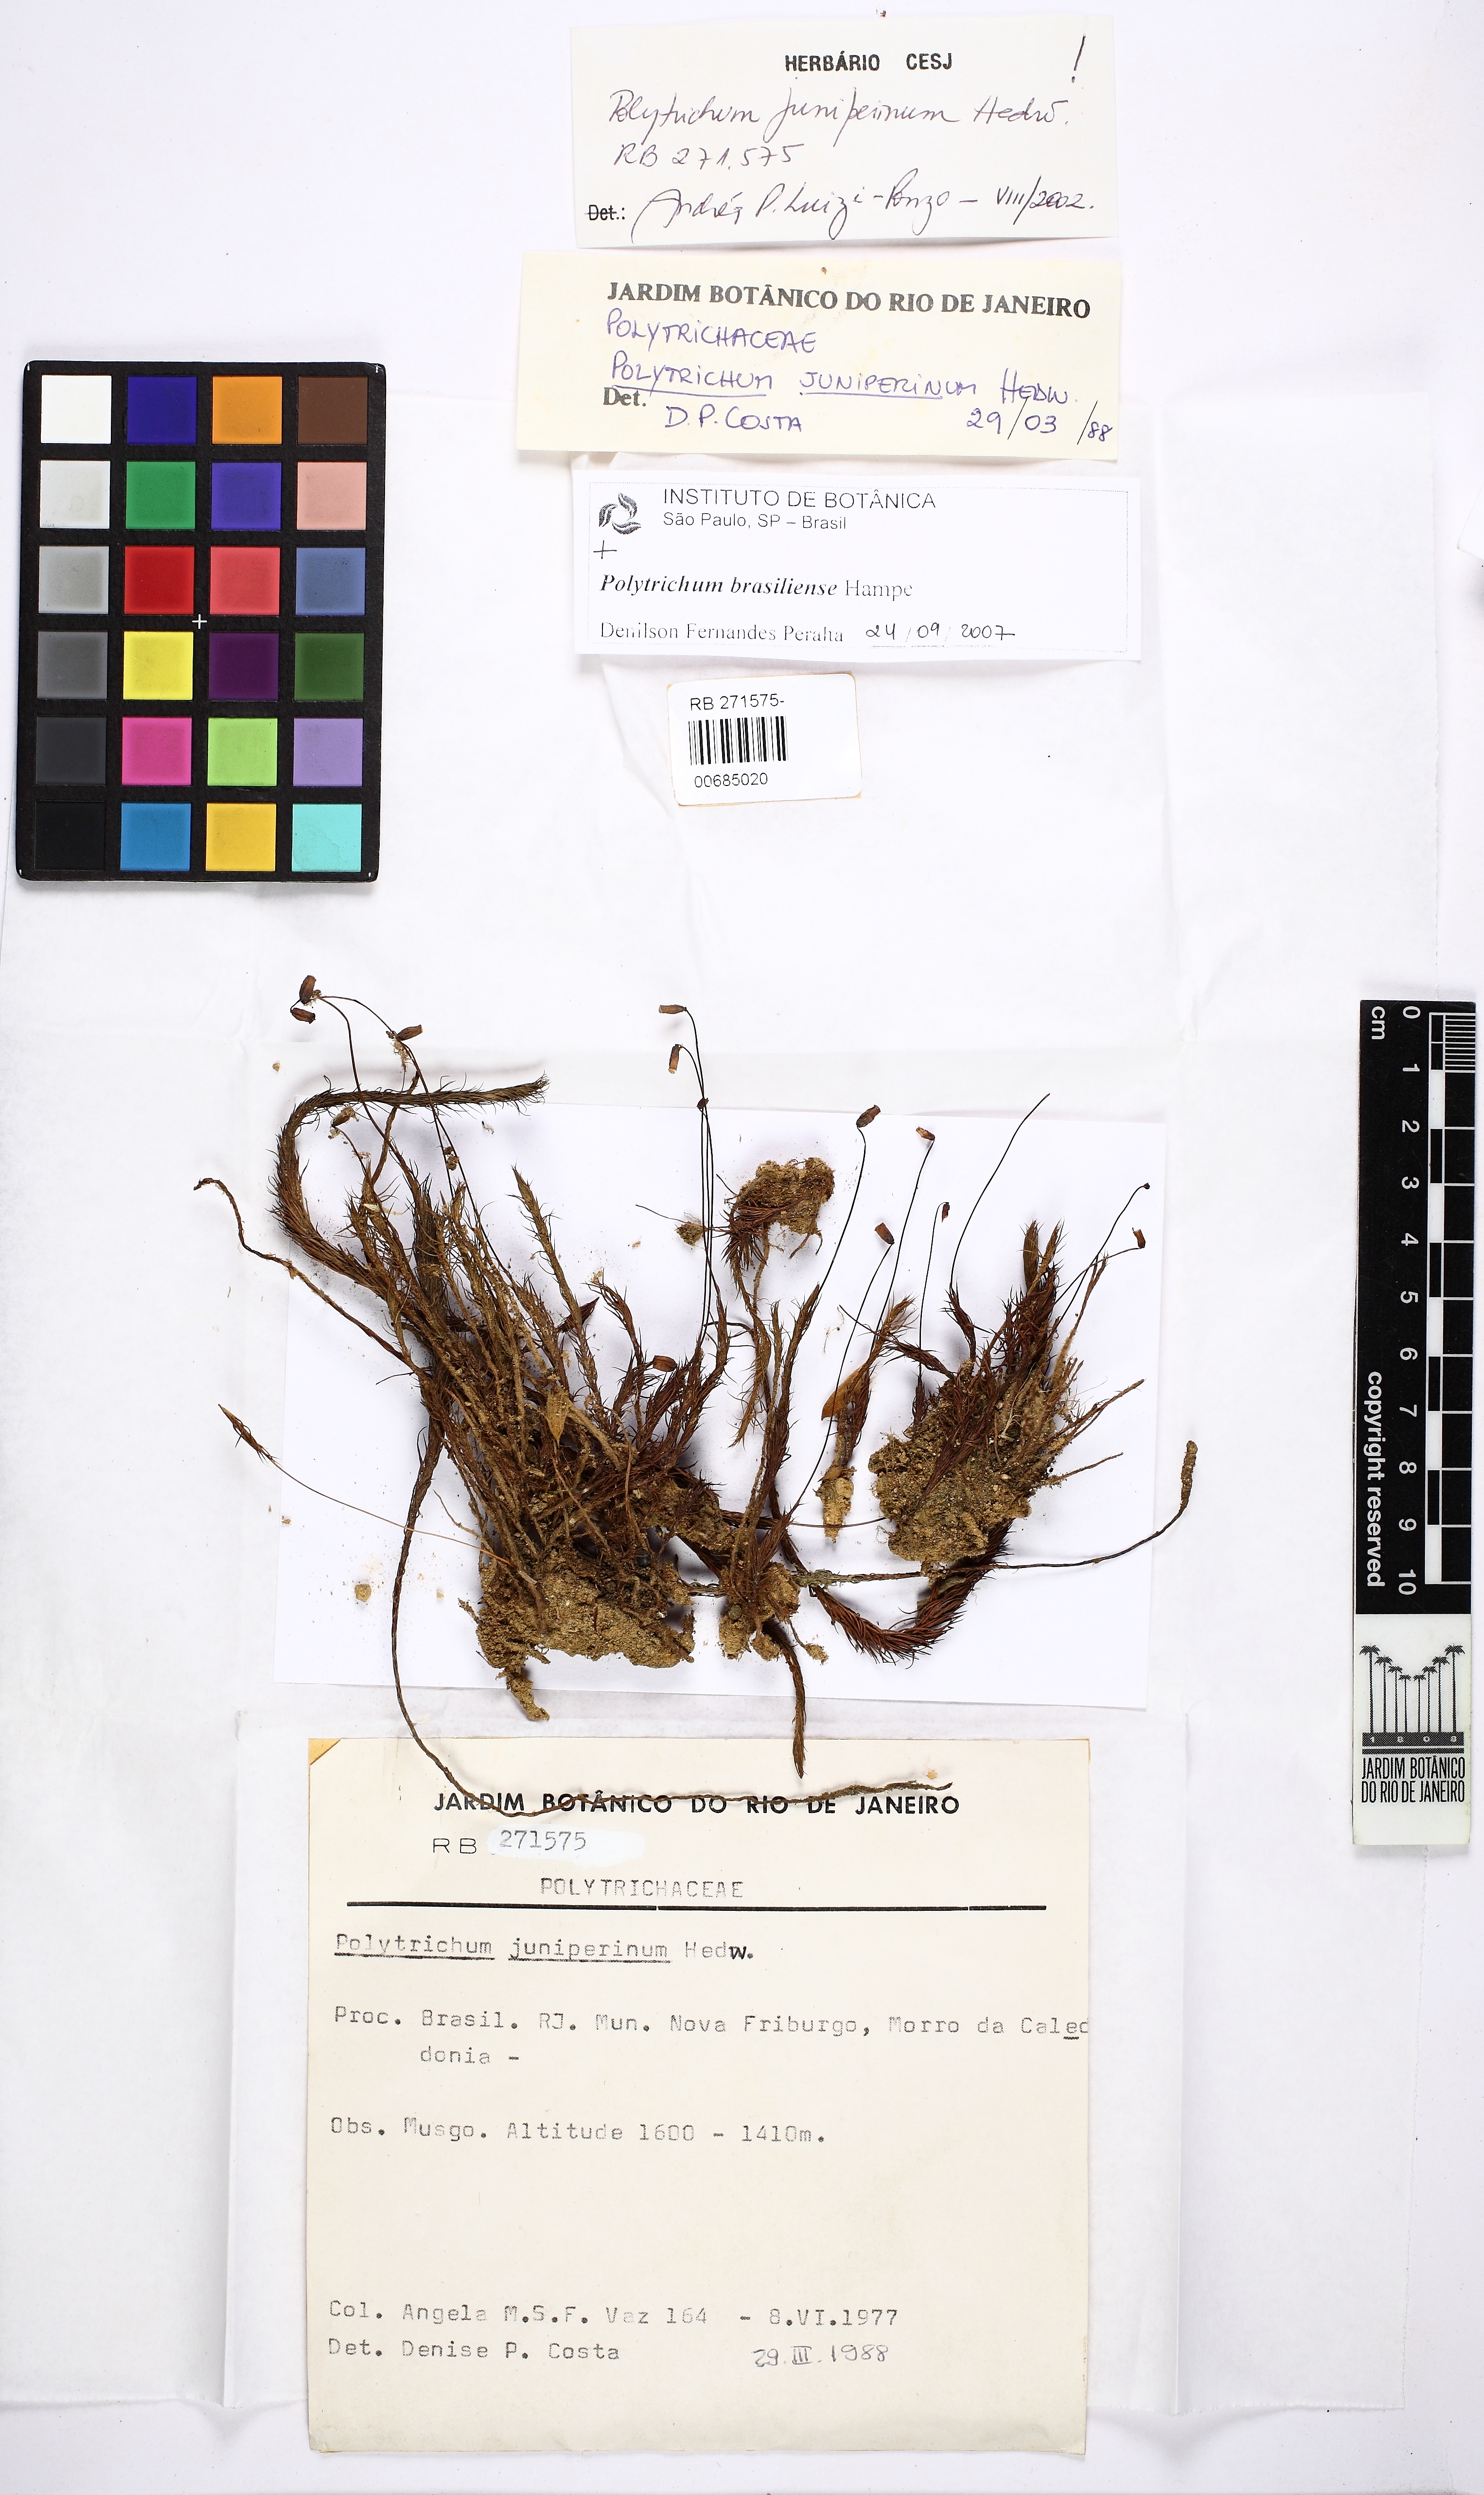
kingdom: Plantae
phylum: Bryophyta
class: Polytrichopsida
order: Polytrichales
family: Polytrichaceae
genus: Polytrichum
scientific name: Polytrichum juniperinum
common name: Juniper haircap moss
